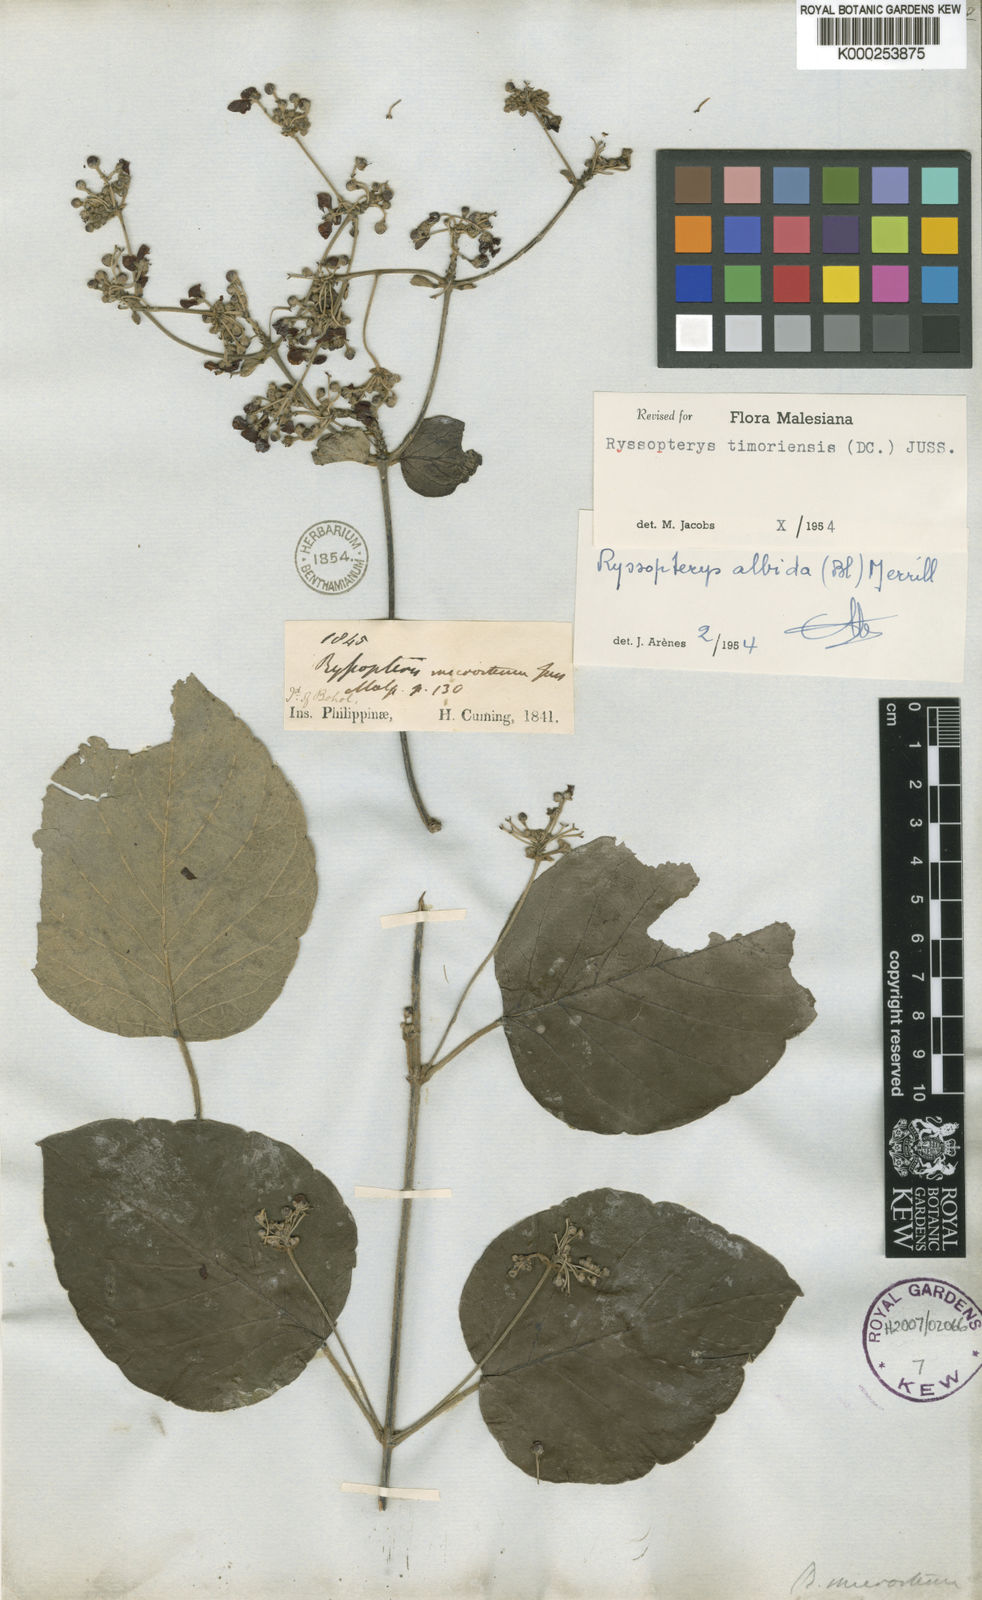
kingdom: Plantae
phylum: Tracheophyta
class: Magnoliopsida
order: Malpighiales
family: Malpighiaceae
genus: Stigmaphyllon
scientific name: Stigmaphyllon merrillii
